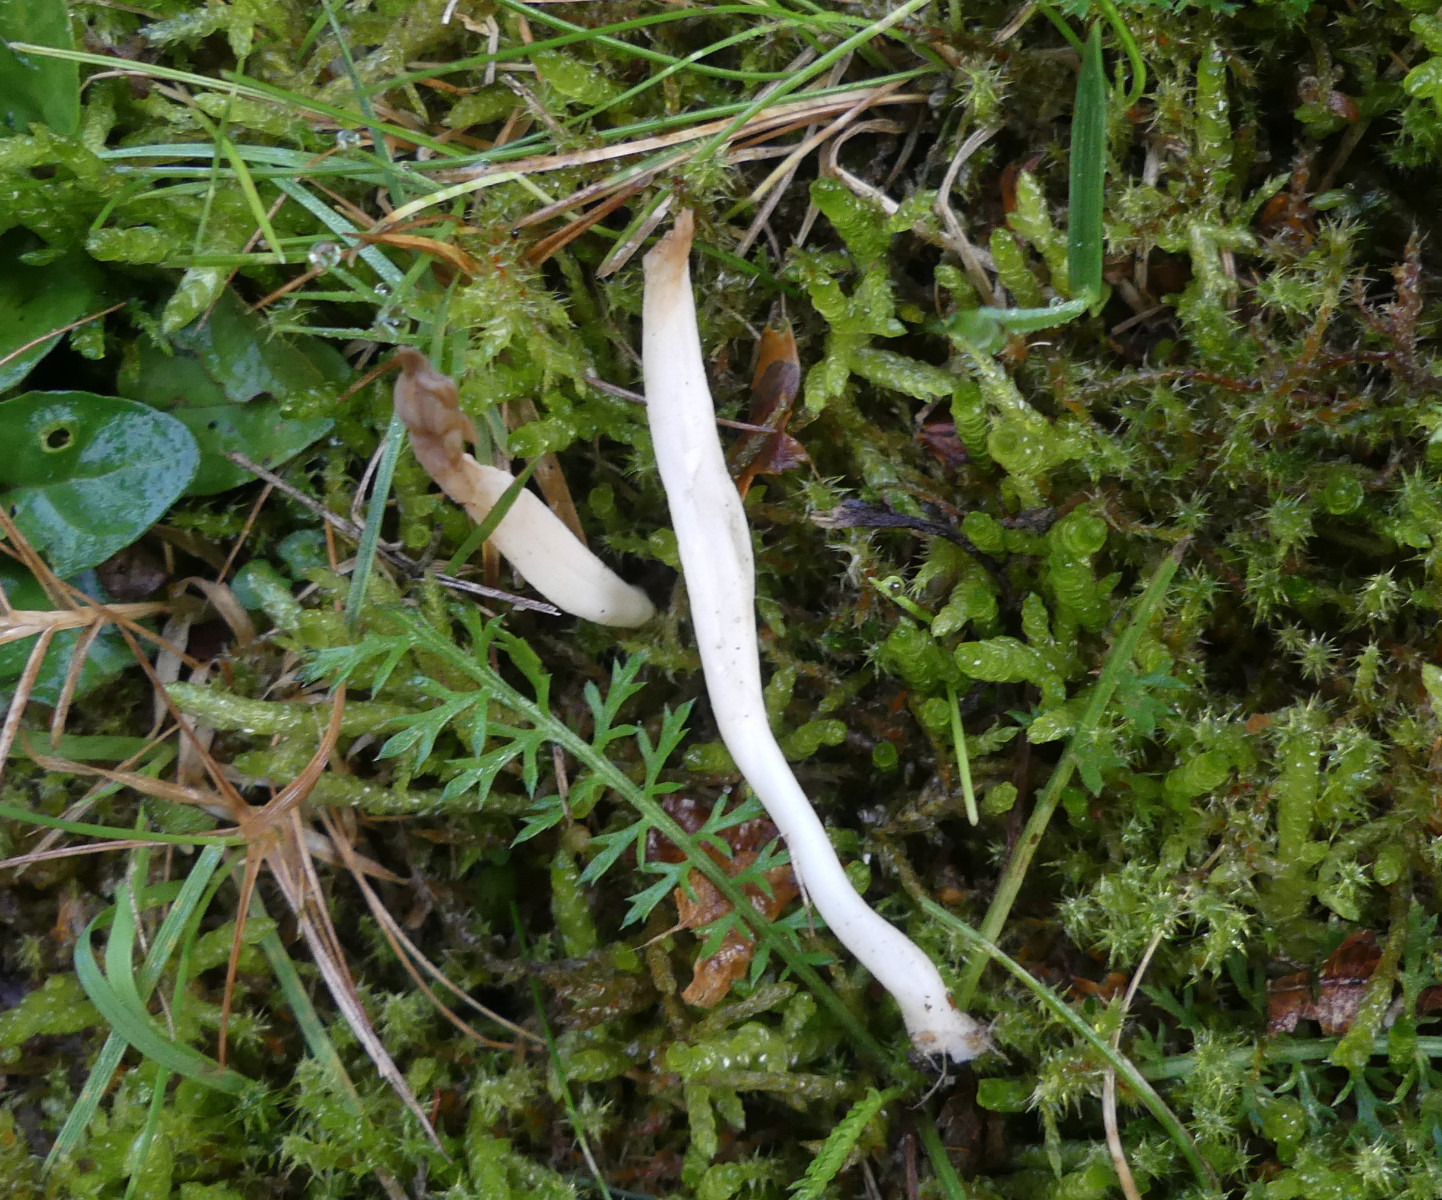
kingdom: Fungi
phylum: Basidiomycota
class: Agaricomycetes
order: Agaricales
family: Clavariaceae
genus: Clavaria
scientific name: Clavaria falcata
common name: hvid køllesvamp
